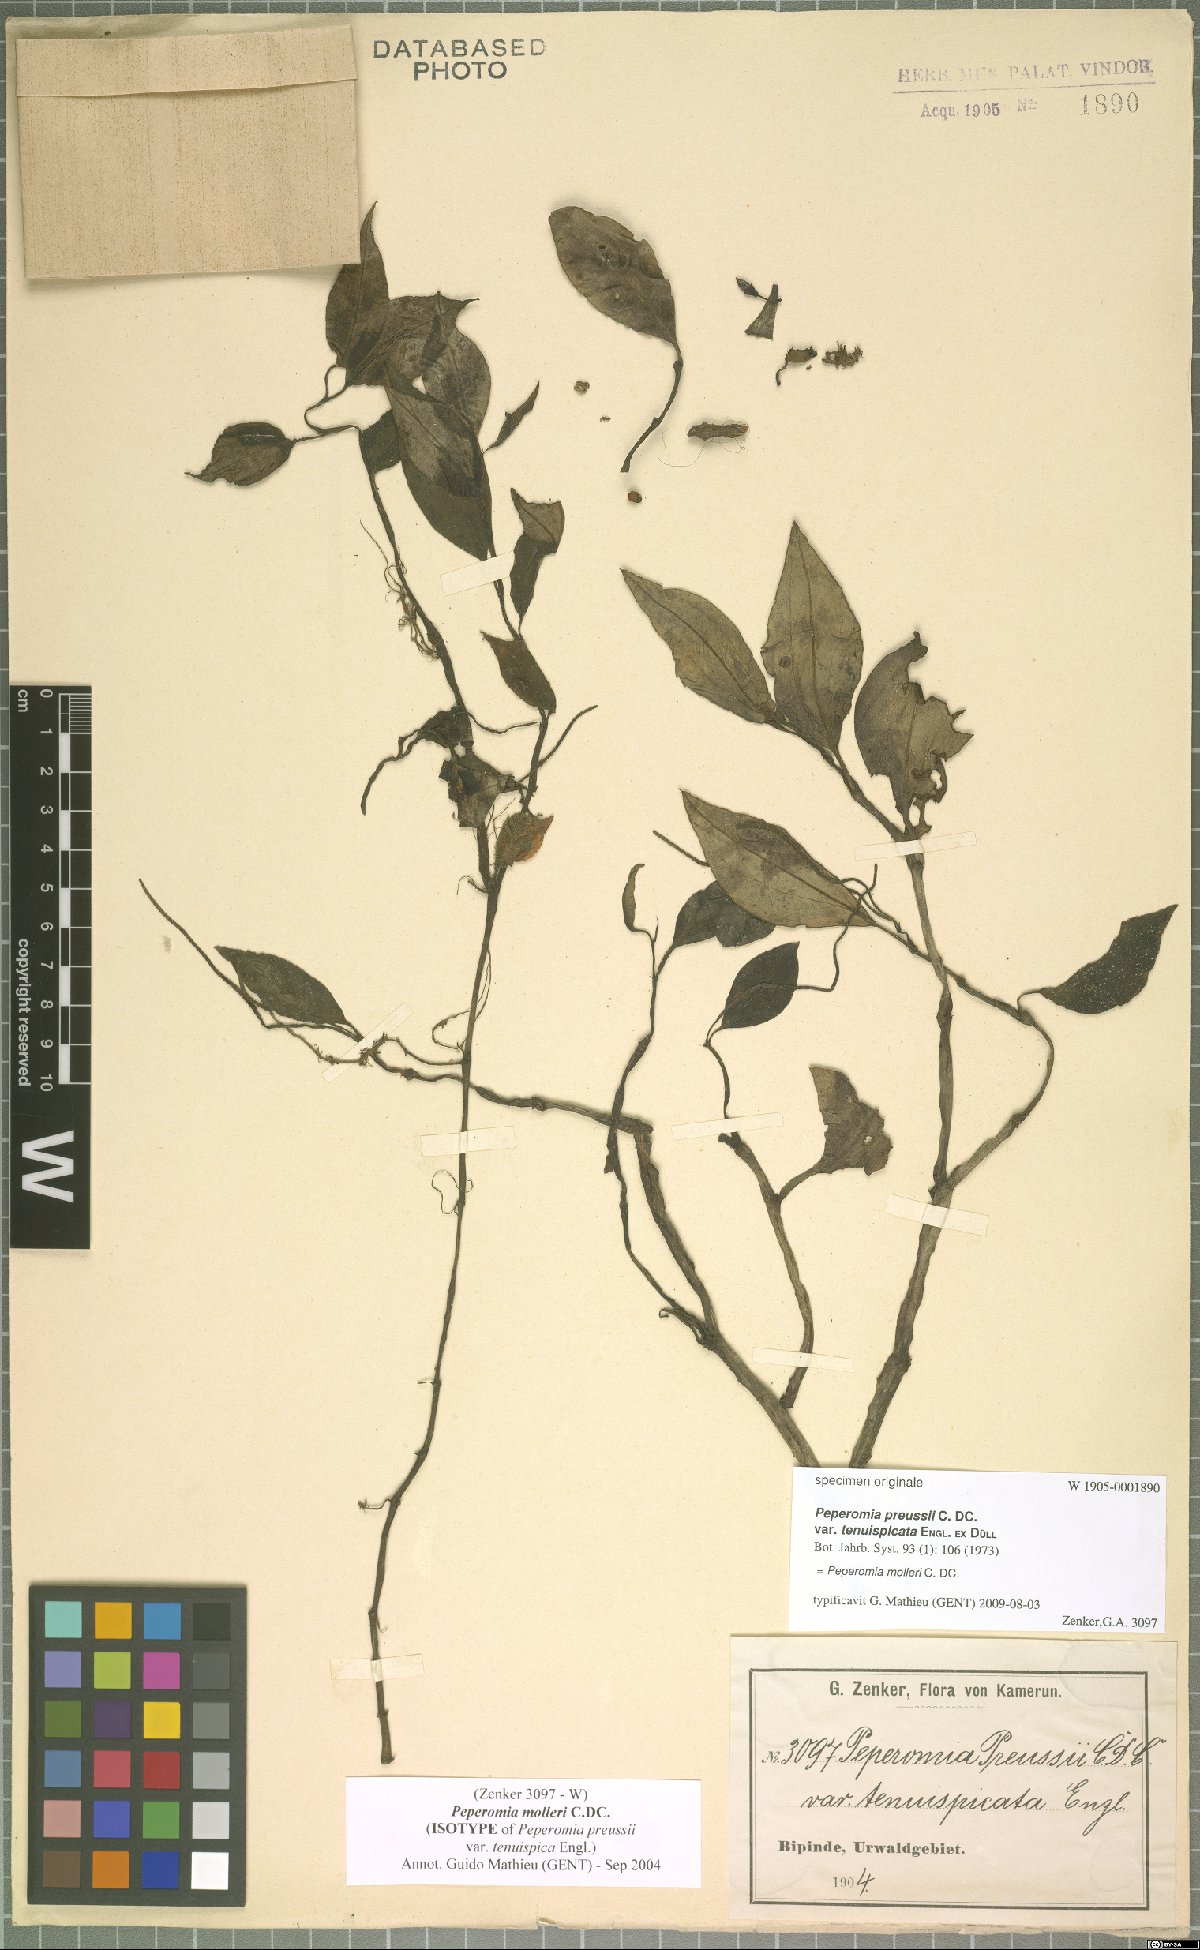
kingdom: Plantae
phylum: Tracheophyta
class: Magnoliopsida
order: Piperales
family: Piperaceae
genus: Peperomia
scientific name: Peperomia molleri
